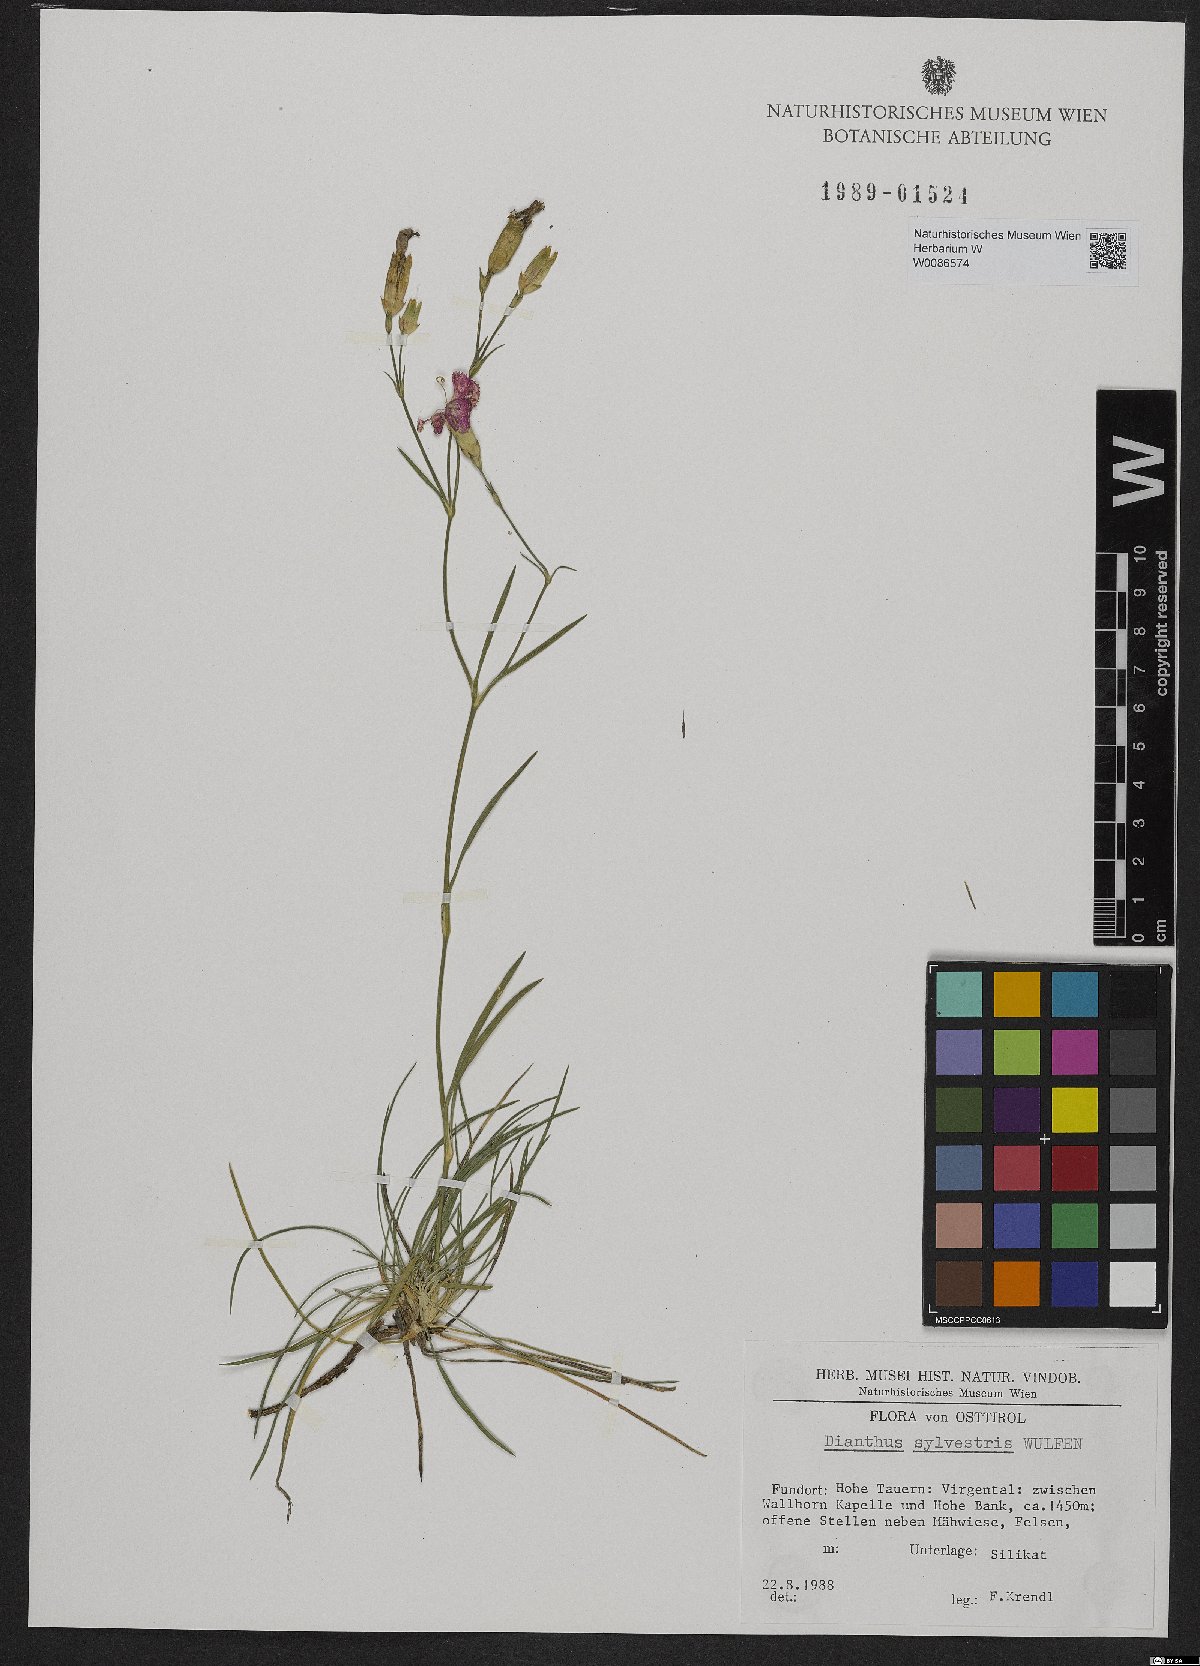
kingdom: Plantae
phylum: Tracheophyta
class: Magnoliopsida
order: Caryophyllales
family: Caryophyllaceae
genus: Dianthus
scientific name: Dianthus sylvestris
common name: Wood pink
